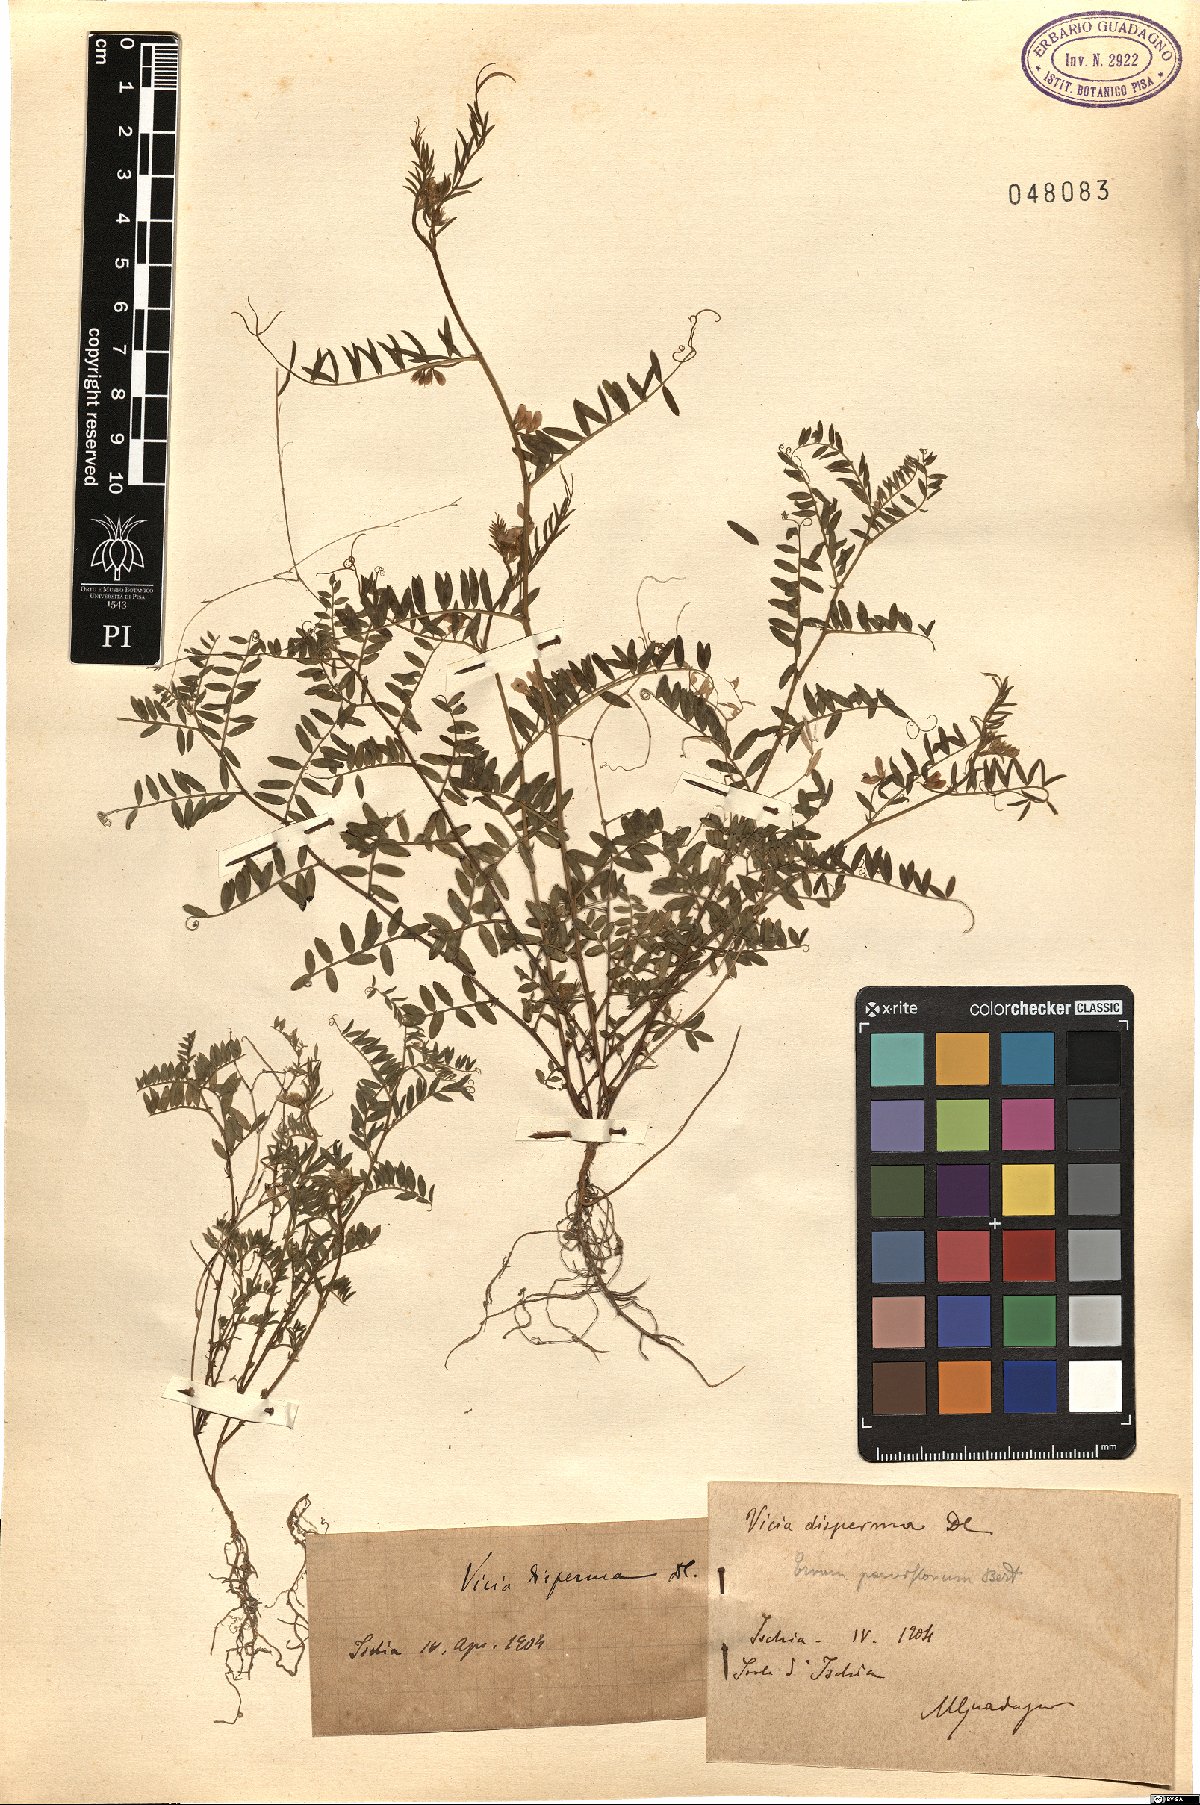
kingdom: Plantae
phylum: Tracheophyta
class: Magnoliopsida
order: Fabales
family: Fabaceae
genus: Vicia
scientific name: Vicia disperma
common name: European vetch
